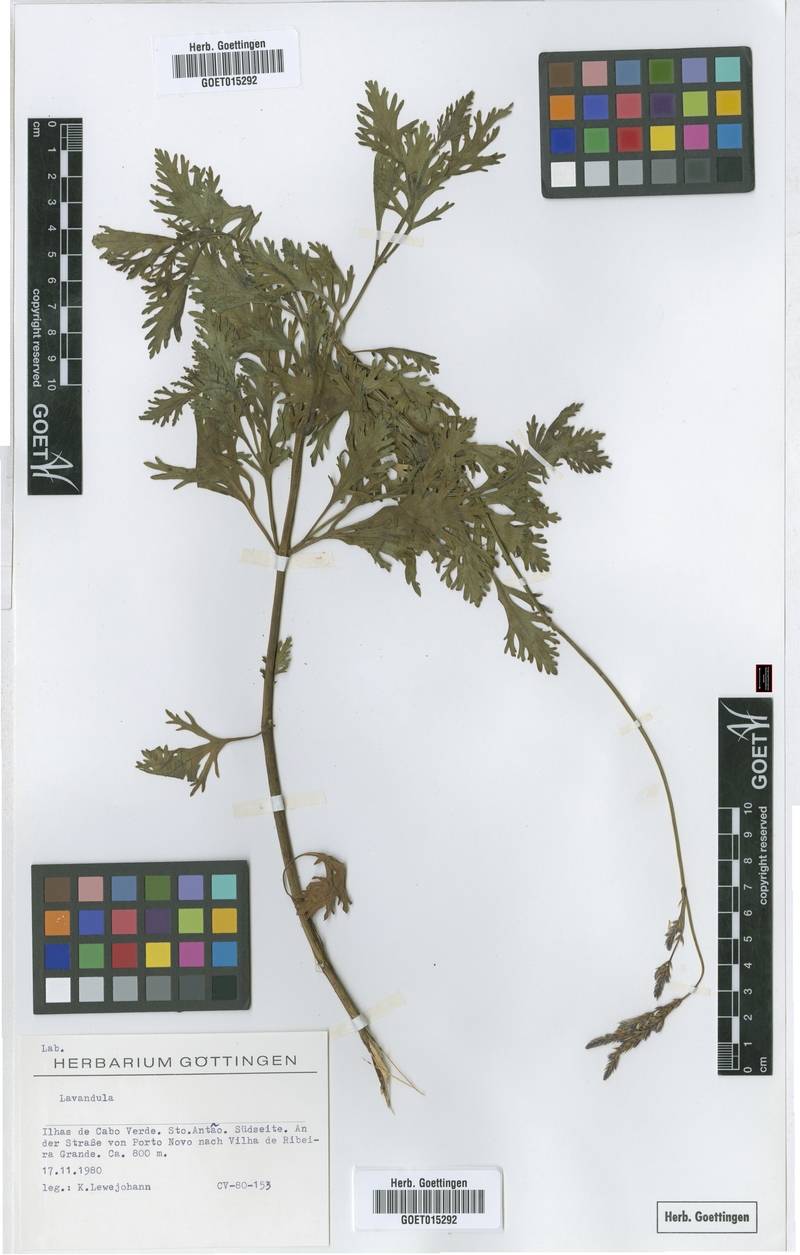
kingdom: Plantae
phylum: Tracheophyta
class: Magnoliopsida
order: Lamiales
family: Lamiaceae
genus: Lavandula
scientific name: Lavandula
